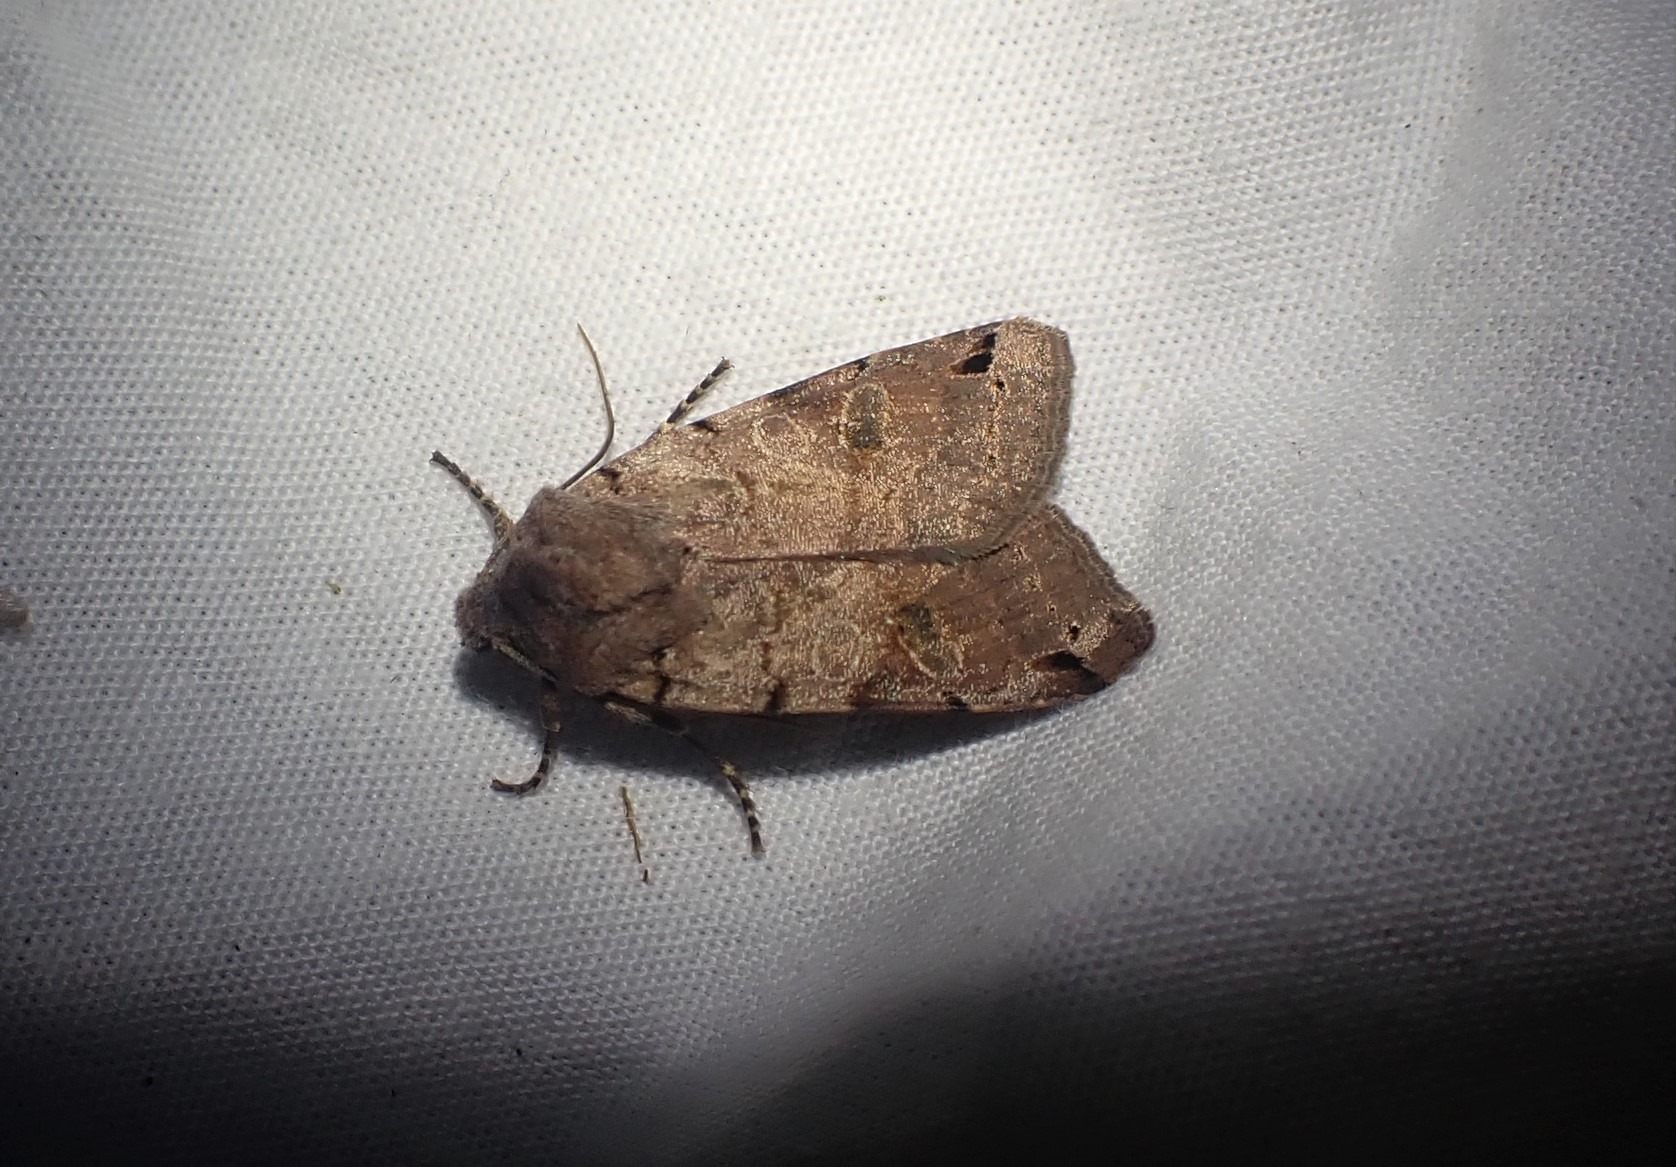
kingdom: Animalia
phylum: Arthropoda
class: Insecta
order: Lepidoptera
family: Noctuidae
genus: Agrochola
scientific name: Agrochola litura
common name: Kantplettet jordfarveugle
